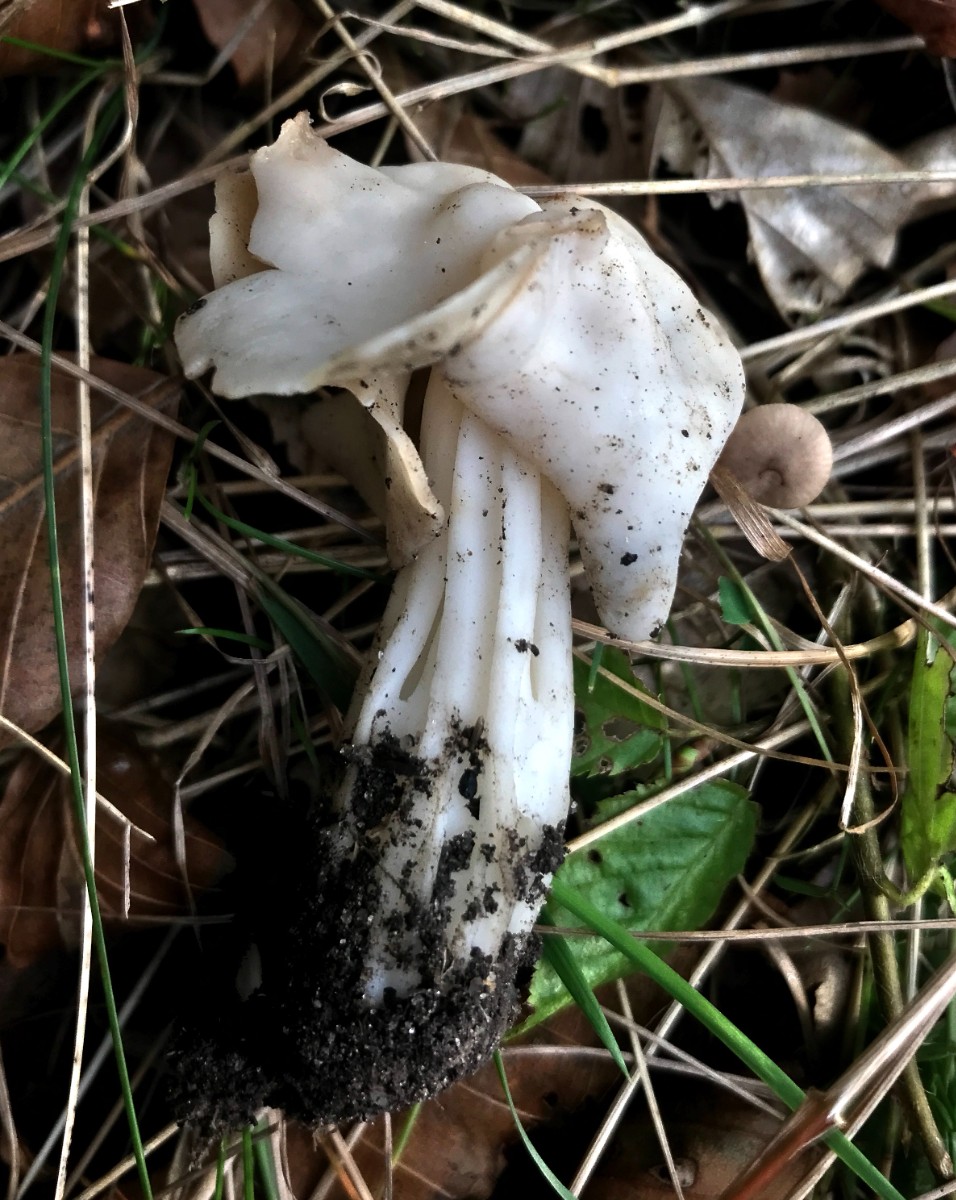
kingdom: Fungi
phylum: Ascomycota
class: Pezizomycetes
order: Pezizales
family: Helvellaceae
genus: Helvella
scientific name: Helvella crispa
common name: kruset foldhat
